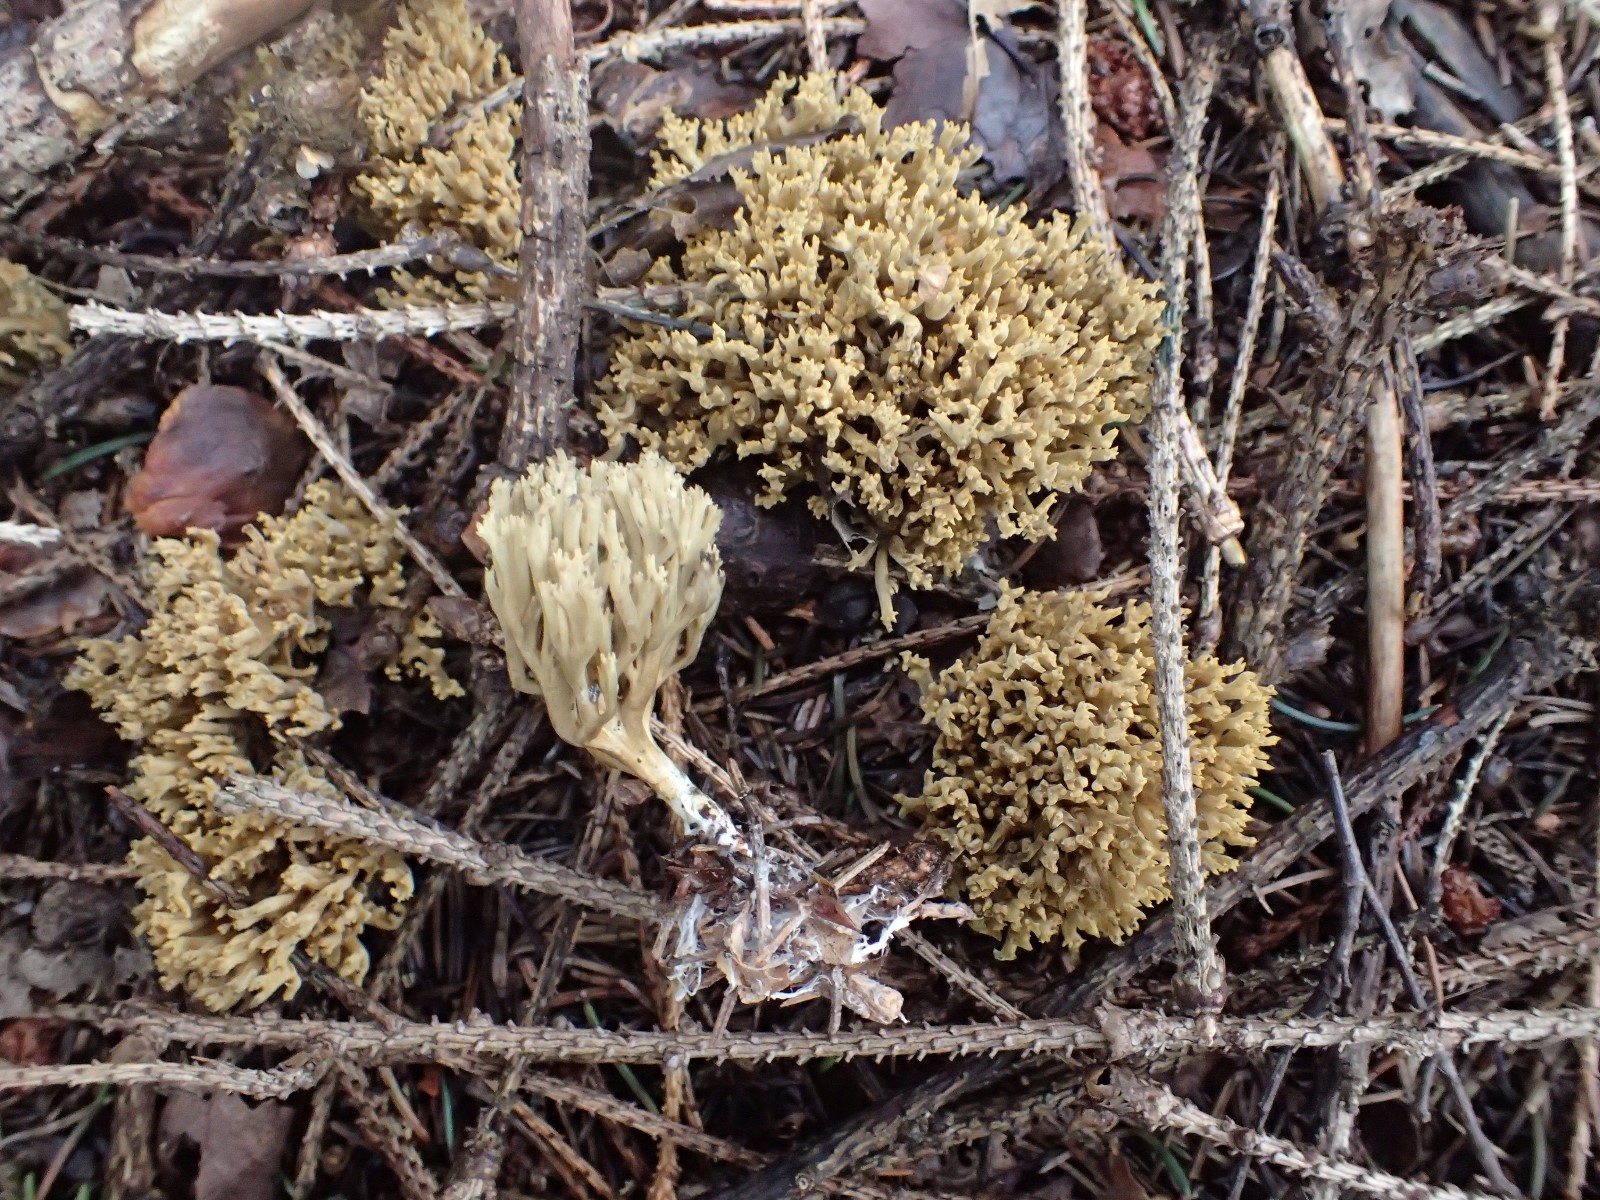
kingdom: Fungi
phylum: Basidiomycota
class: Agaricomycetes
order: Gomphales
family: Gomphaceae
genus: Phaeoclavulina
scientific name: Phaeoclavulina eumorpha
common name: gran-koralsvamp
